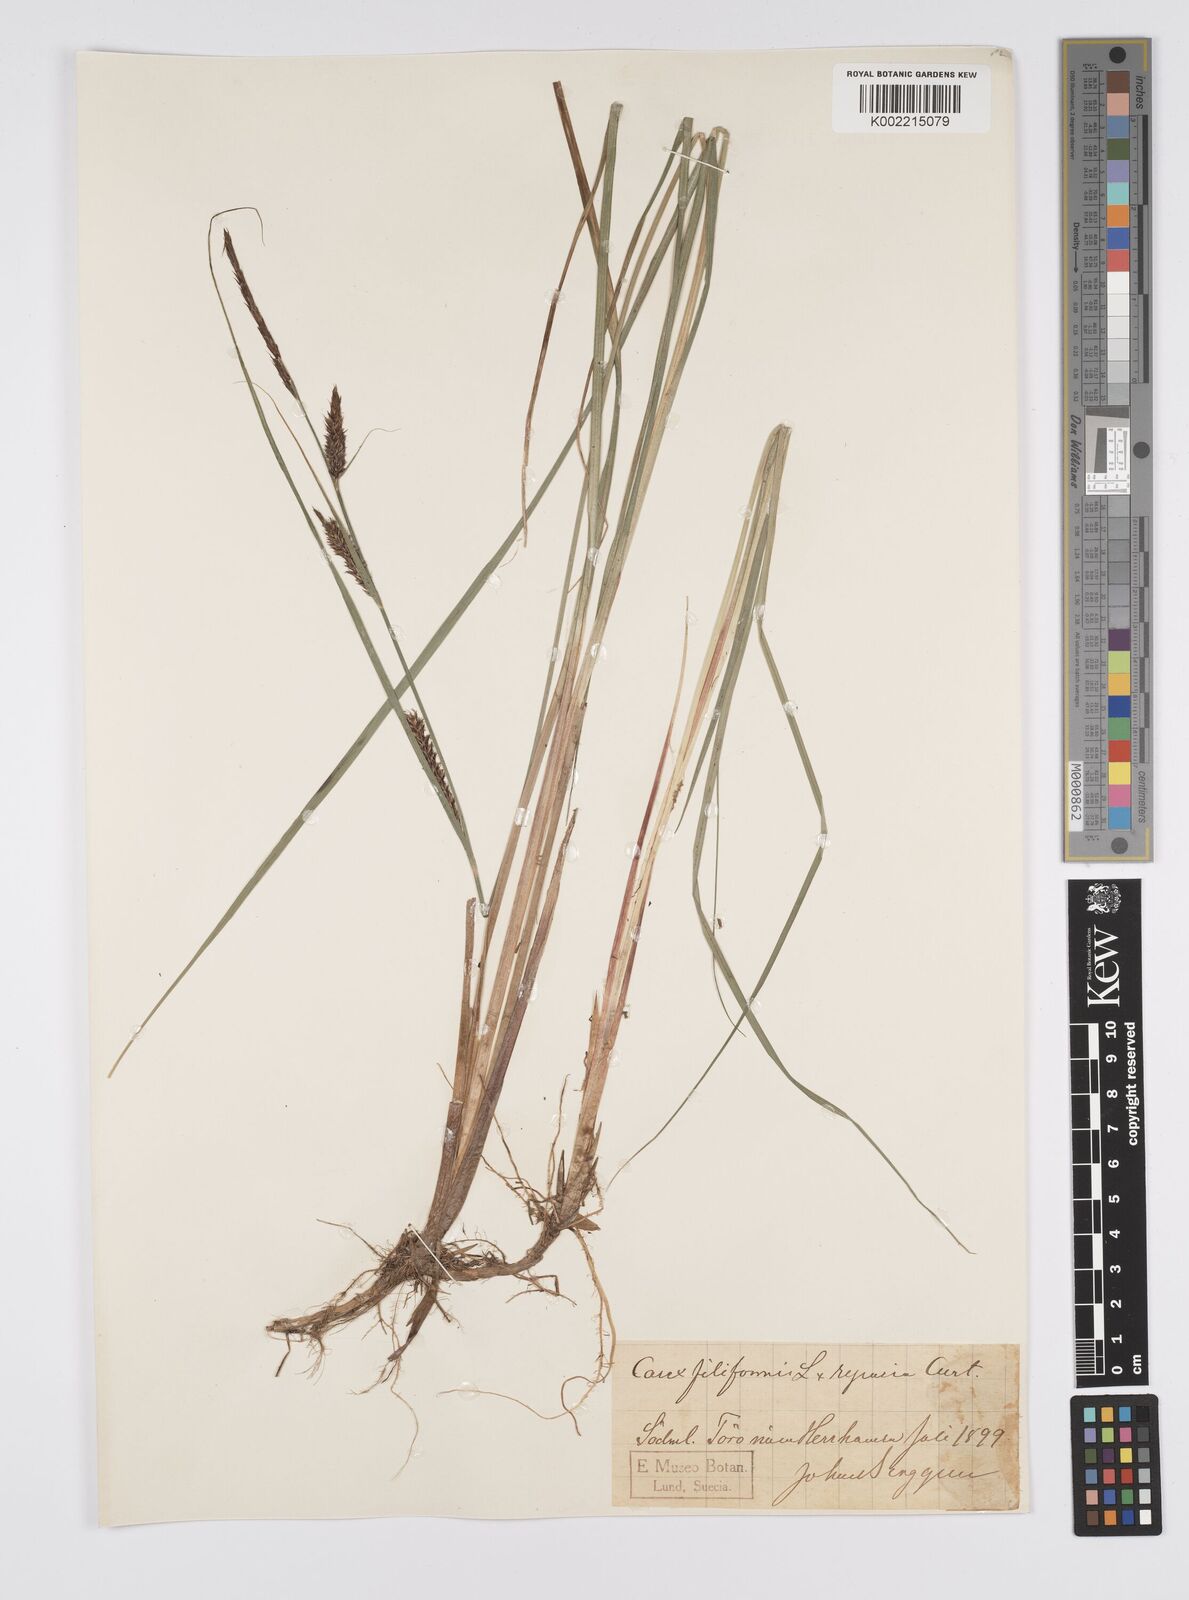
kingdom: Plantae
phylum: Tracheophyta
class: Liliopsida
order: Poales
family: Cyperaceae
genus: Carex
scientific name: Carex evoluta
